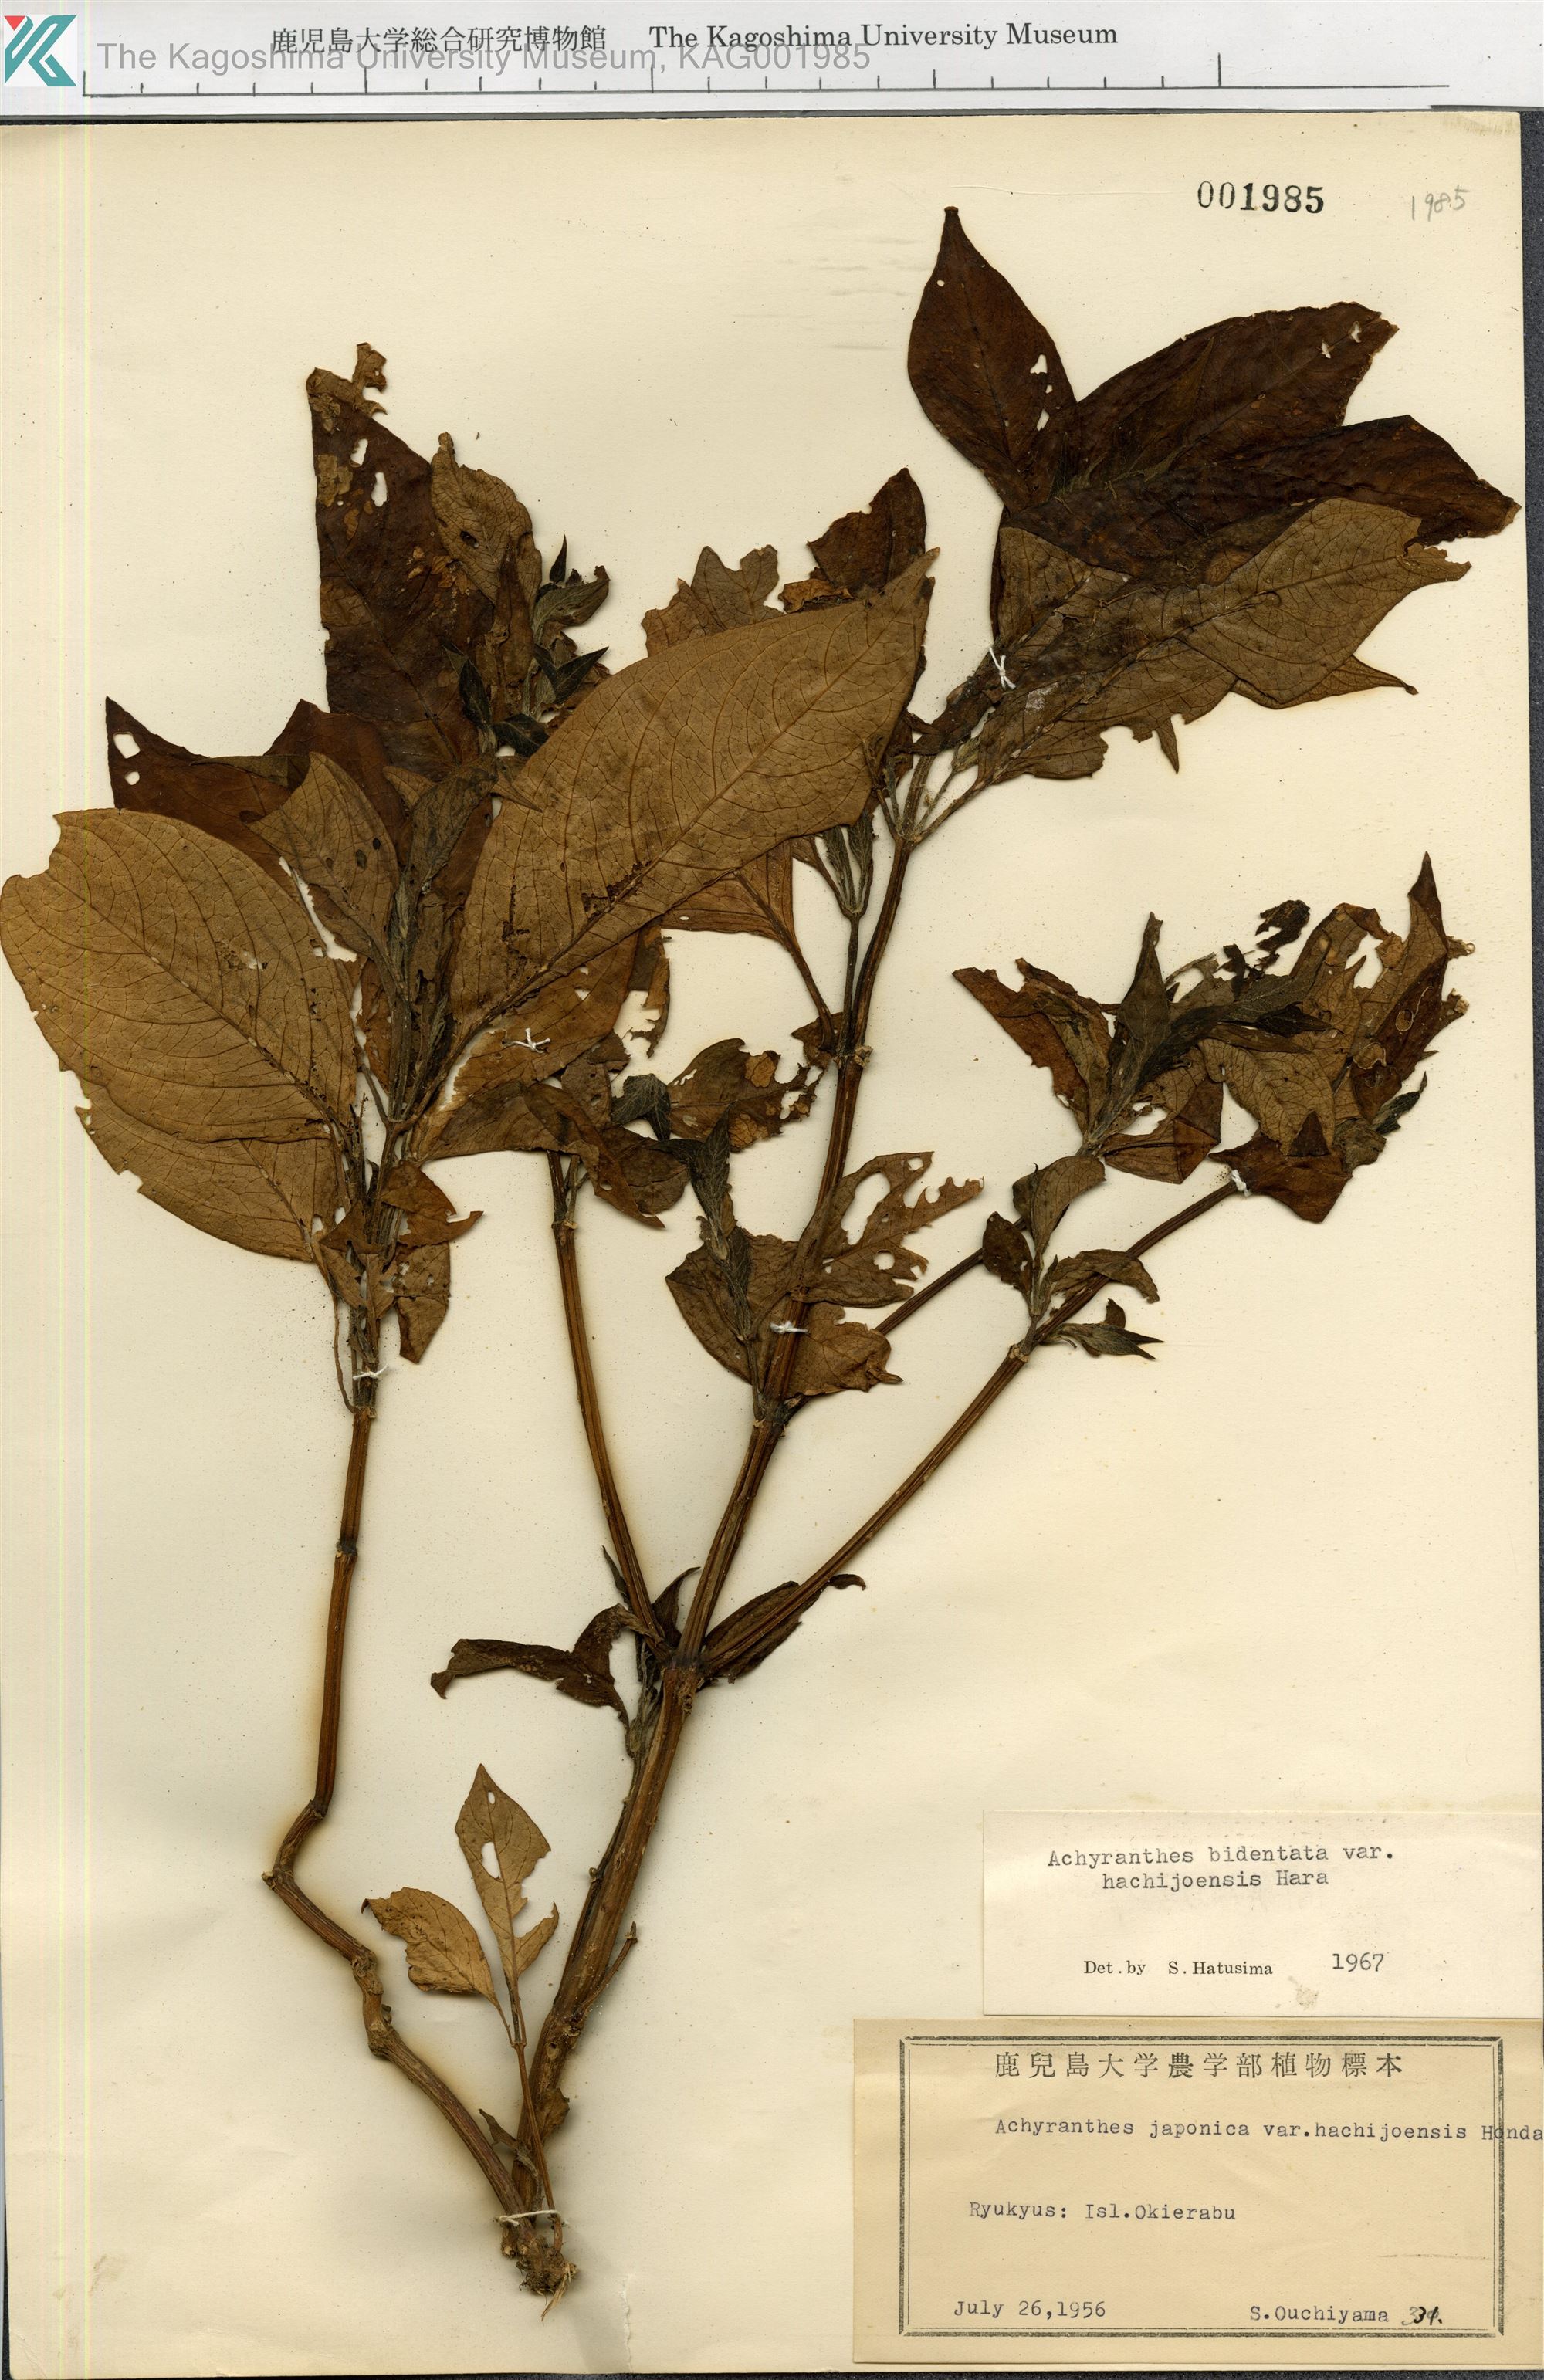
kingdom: Plantae
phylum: Tracheophyta
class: Magnoliopsida
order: Caryophyllales
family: Amaranthaceae
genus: Achyranthes
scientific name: Achyranthes bidentata
